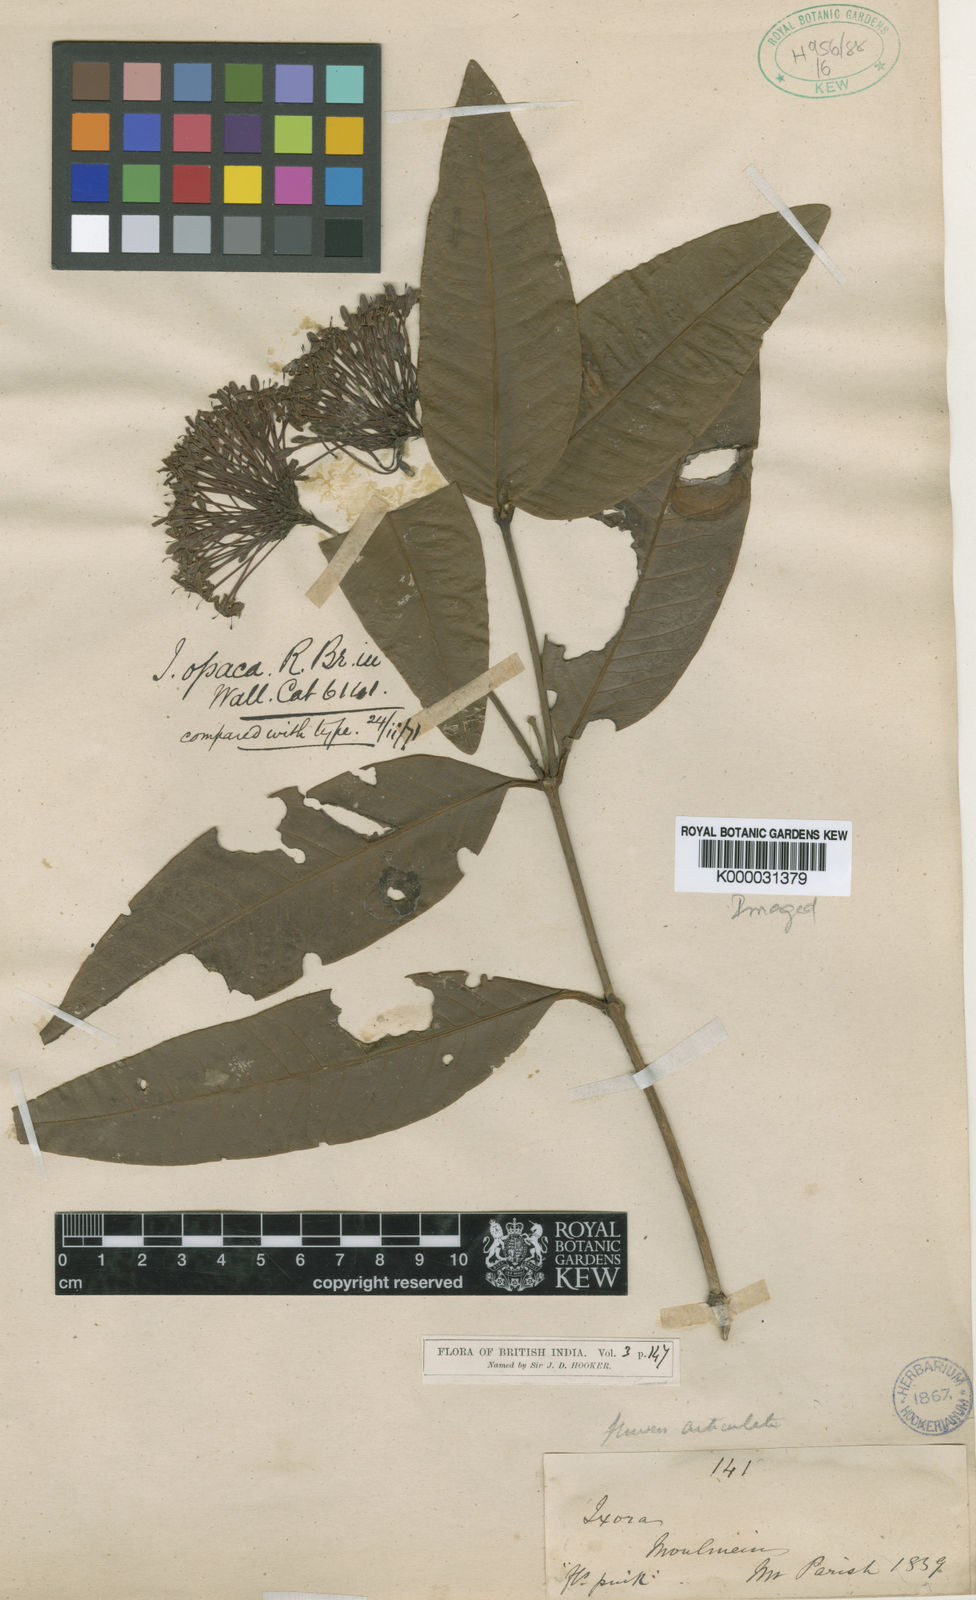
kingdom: Plantae
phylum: Tracheophyta
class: Magnoliopsida
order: Gentianales
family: Rubiaceae
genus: Ixora
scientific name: Ixora pendula
